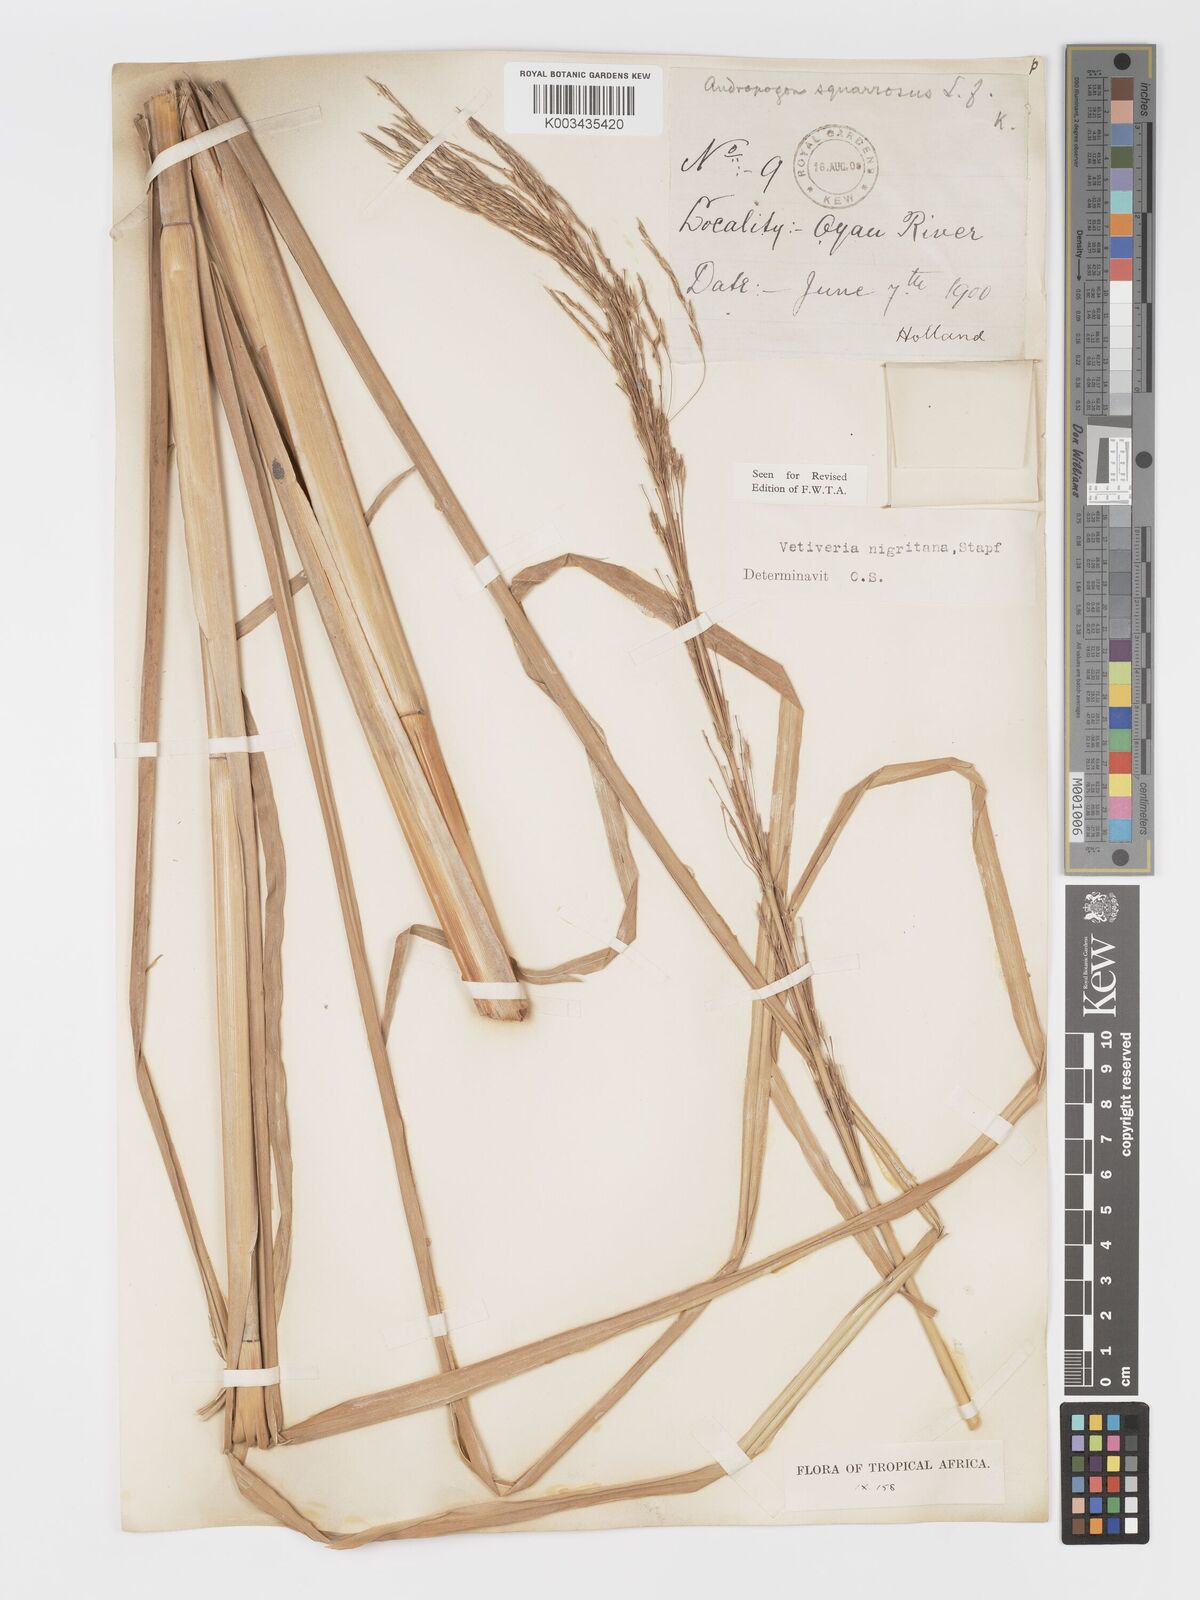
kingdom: Plantae
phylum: Tracheophyta
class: Liliopsida
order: Poales
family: Poaceae
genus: Chrysopogon
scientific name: Chrysopogon nigritanus
